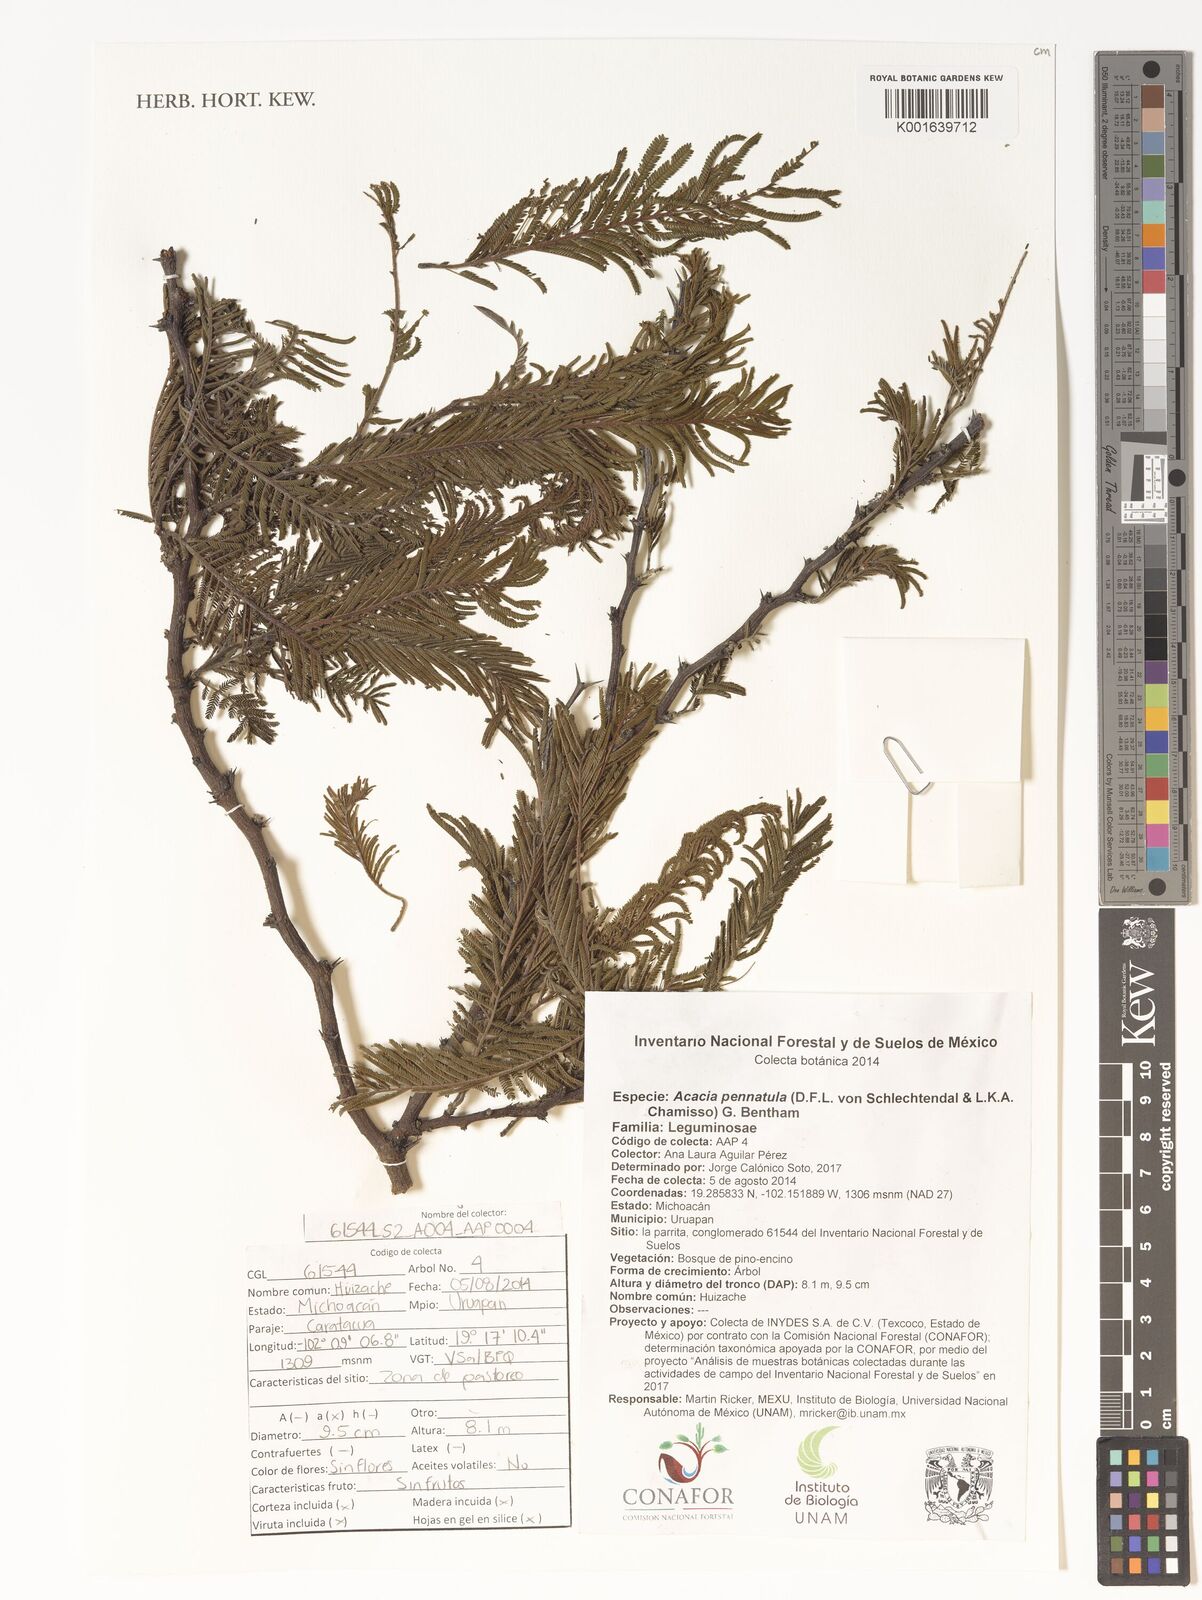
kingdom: Plantae
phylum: Tracheophyta
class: Magnoliopsida
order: Fabales
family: Fabaceae
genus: Vachellia
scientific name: Vachellia pennatula
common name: Fern-leaf acacia
